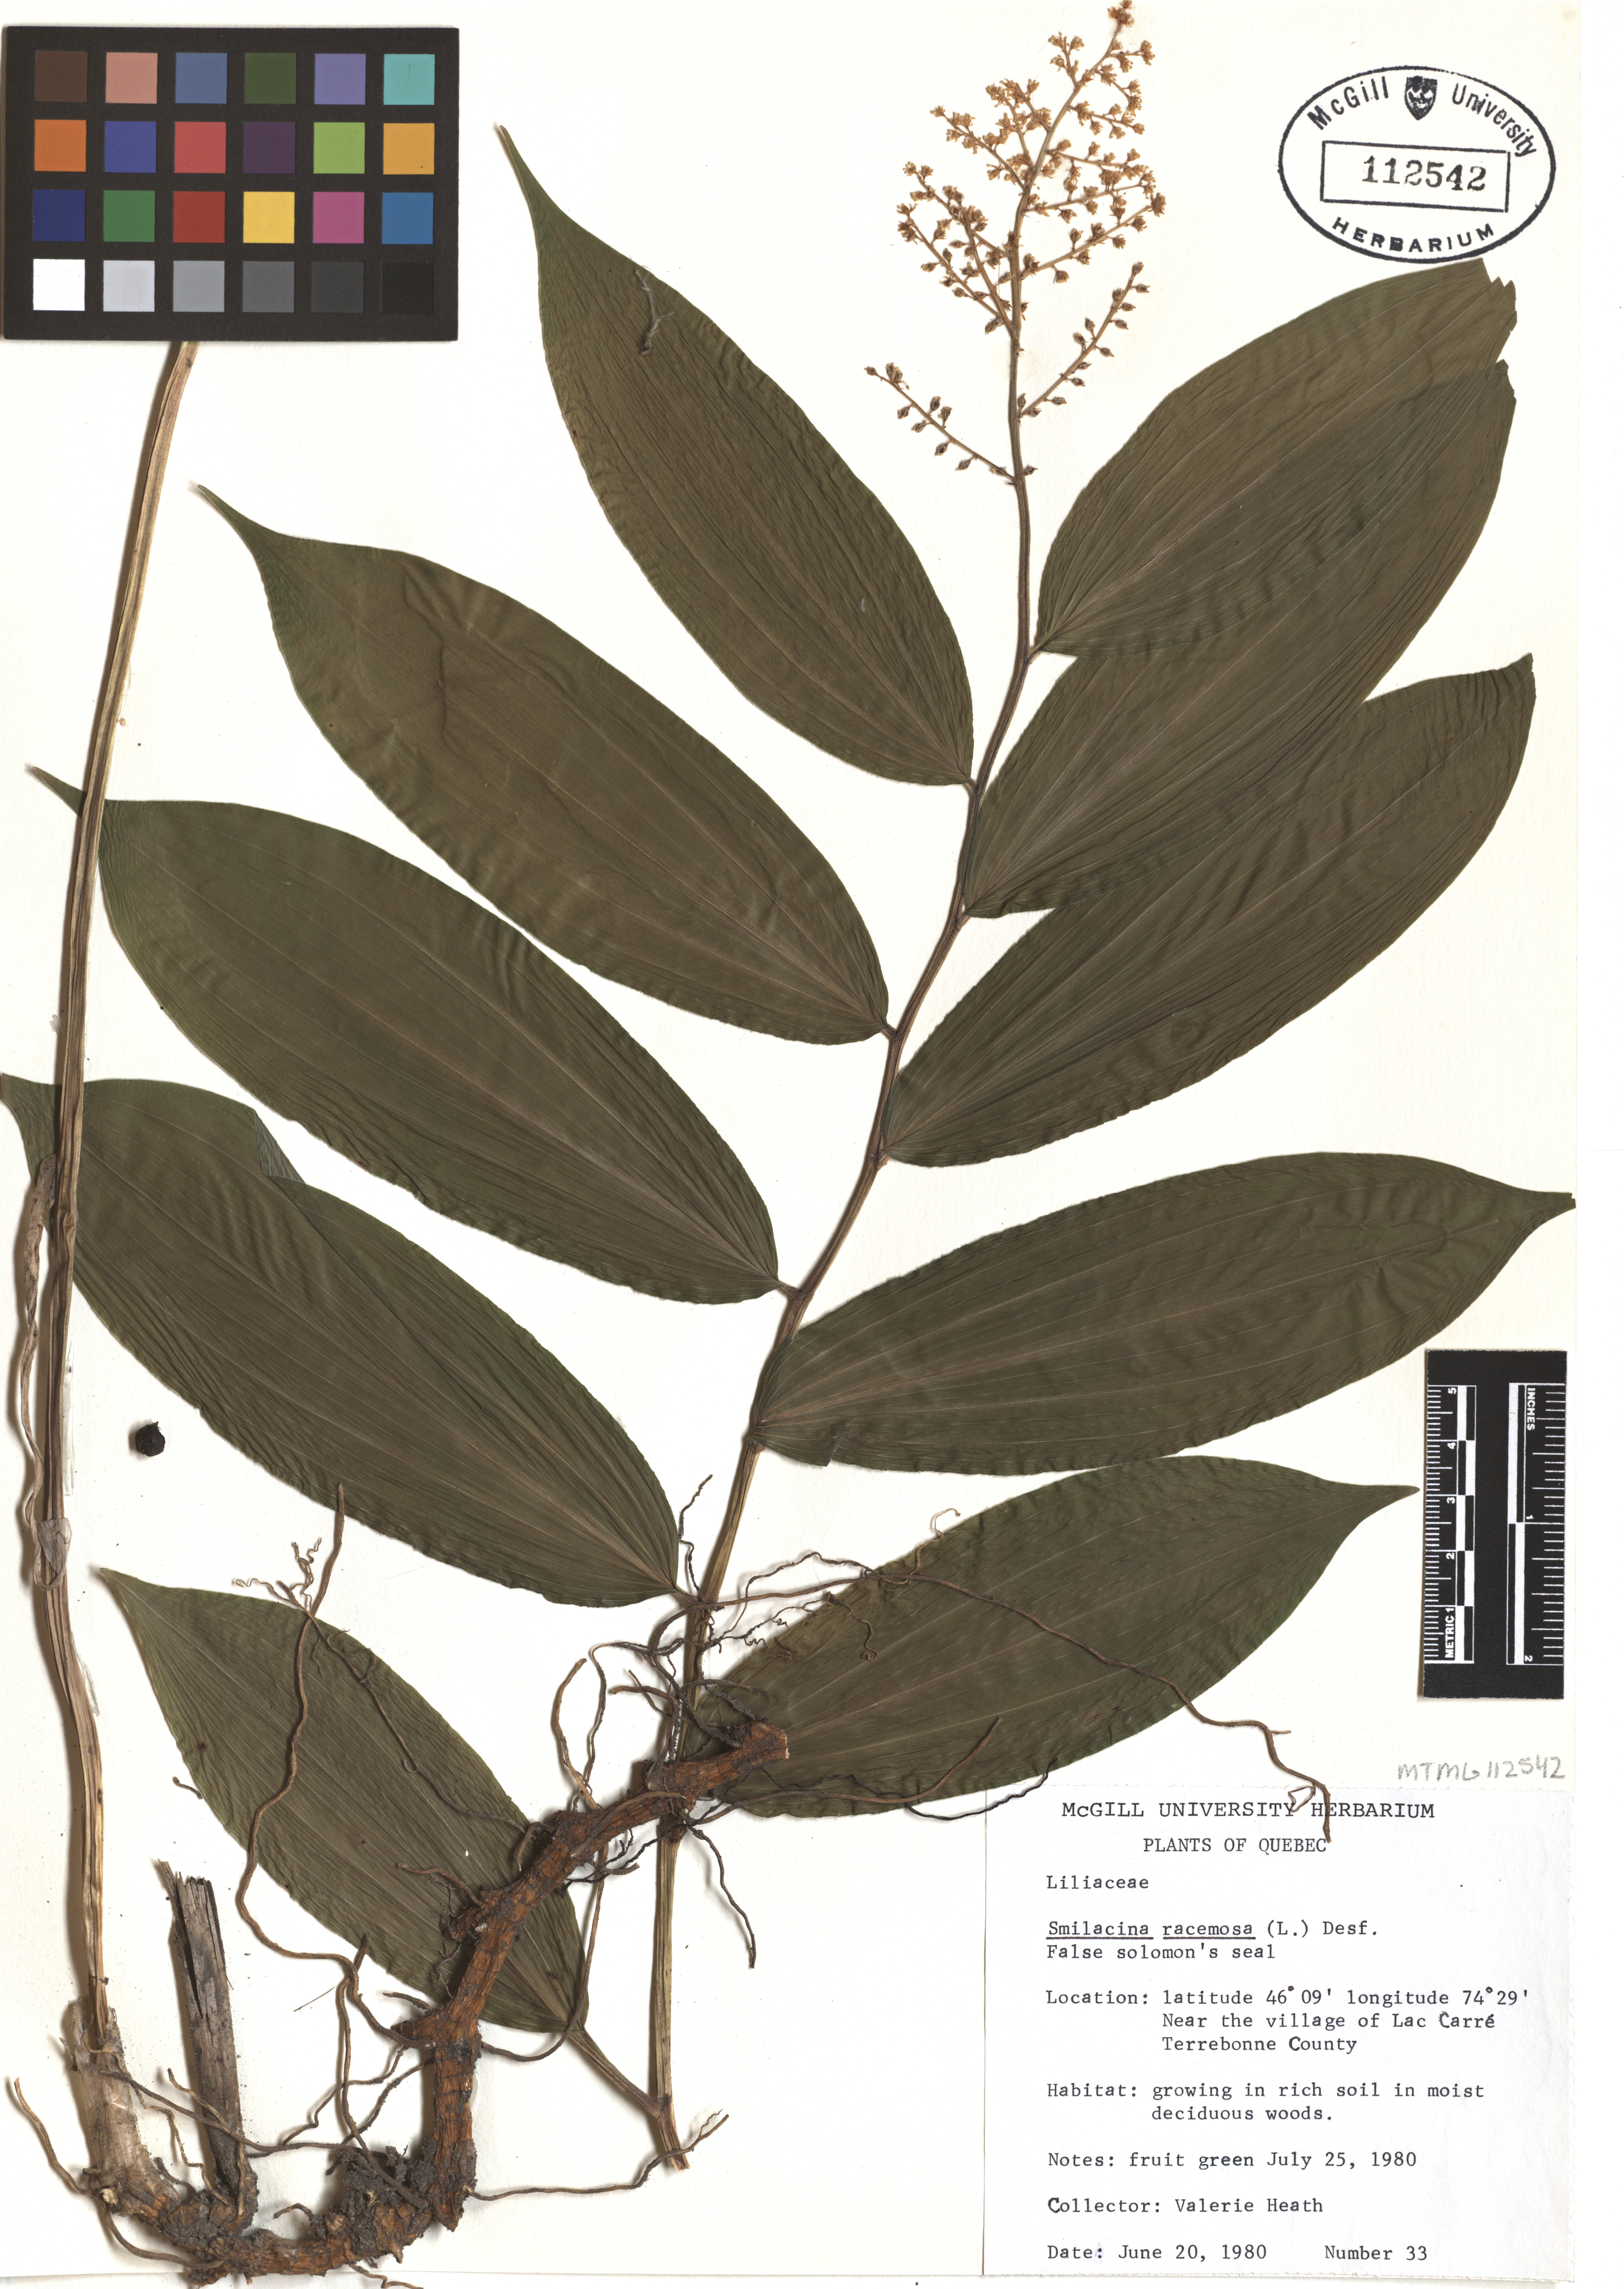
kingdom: Plantae
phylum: Tracheophyta
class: Liliopsida
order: Asparagales
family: Asparagaceae
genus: Maianthemum
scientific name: Maianthemum racemosum
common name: False spikenard
